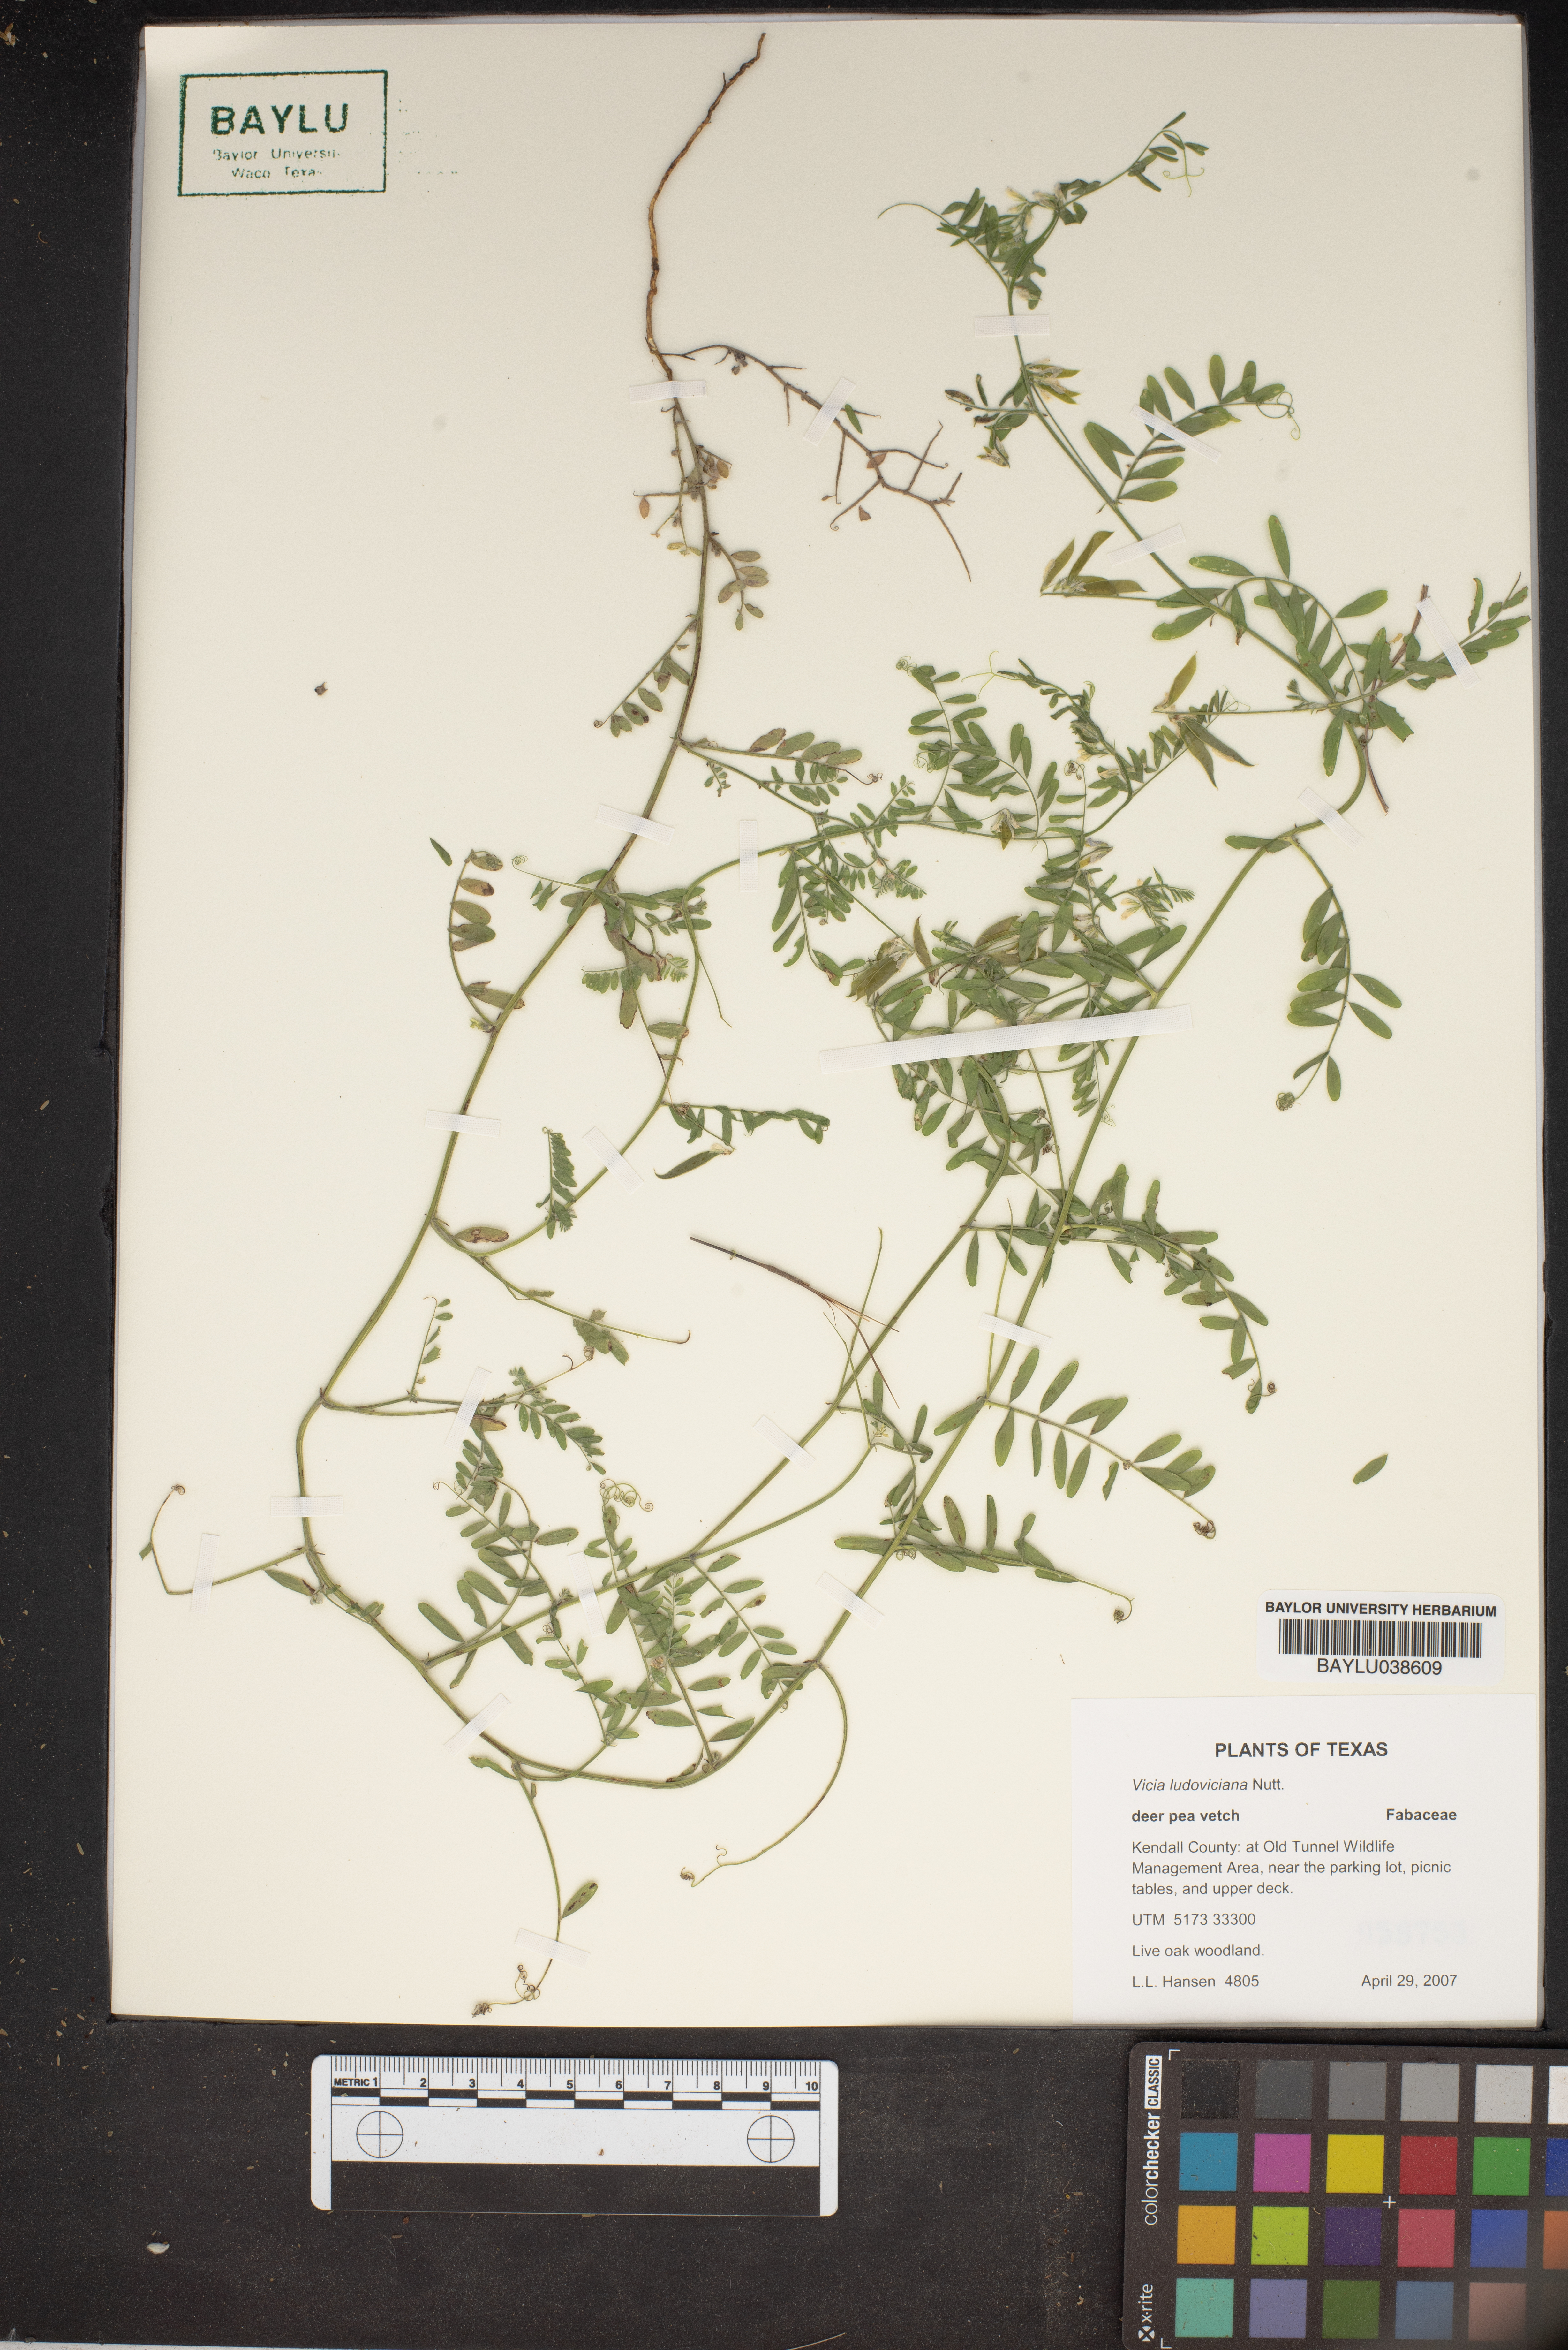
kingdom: Plantae
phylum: Tracheophyta
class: Magnoliopsida
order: Fabales
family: Fabaceae
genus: Vicia
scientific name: Vicia ludoviciana
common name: Louisiana vetch
